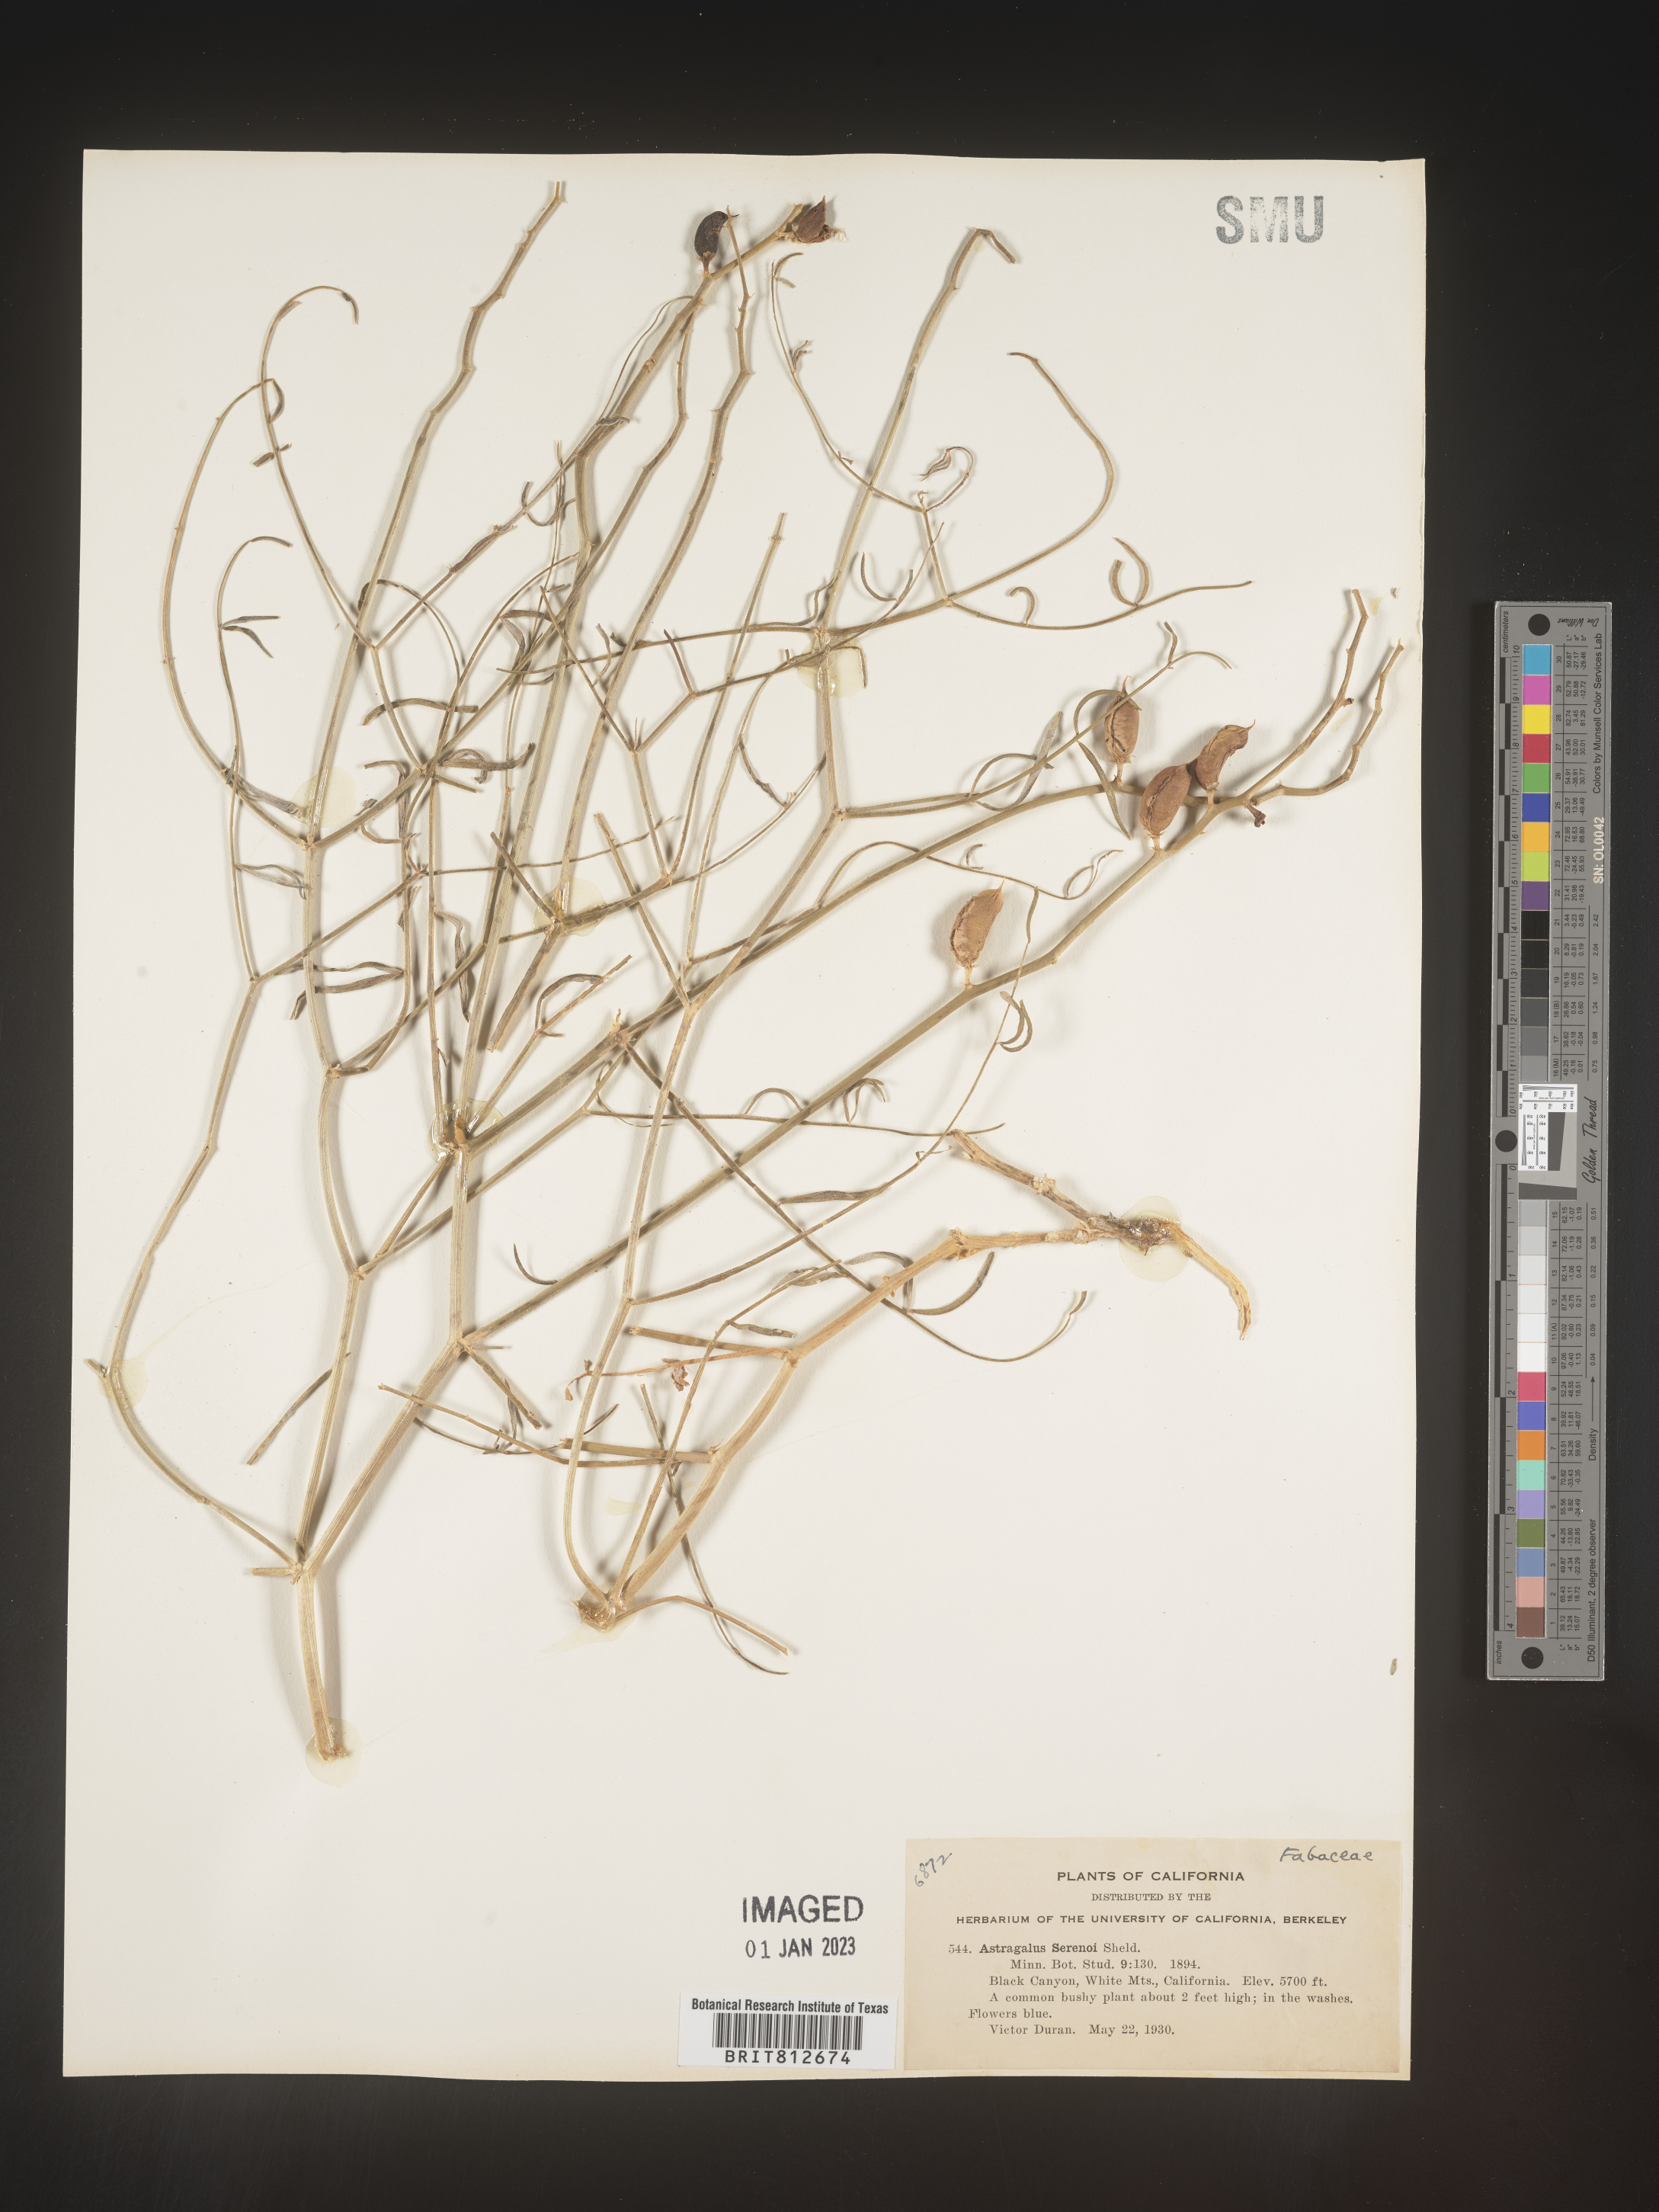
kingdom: Plantae
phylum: Tracheophyta
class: Magnoliopsida
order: Fabales
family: Fabaceae
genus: Astragalus
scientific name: Astragalus
